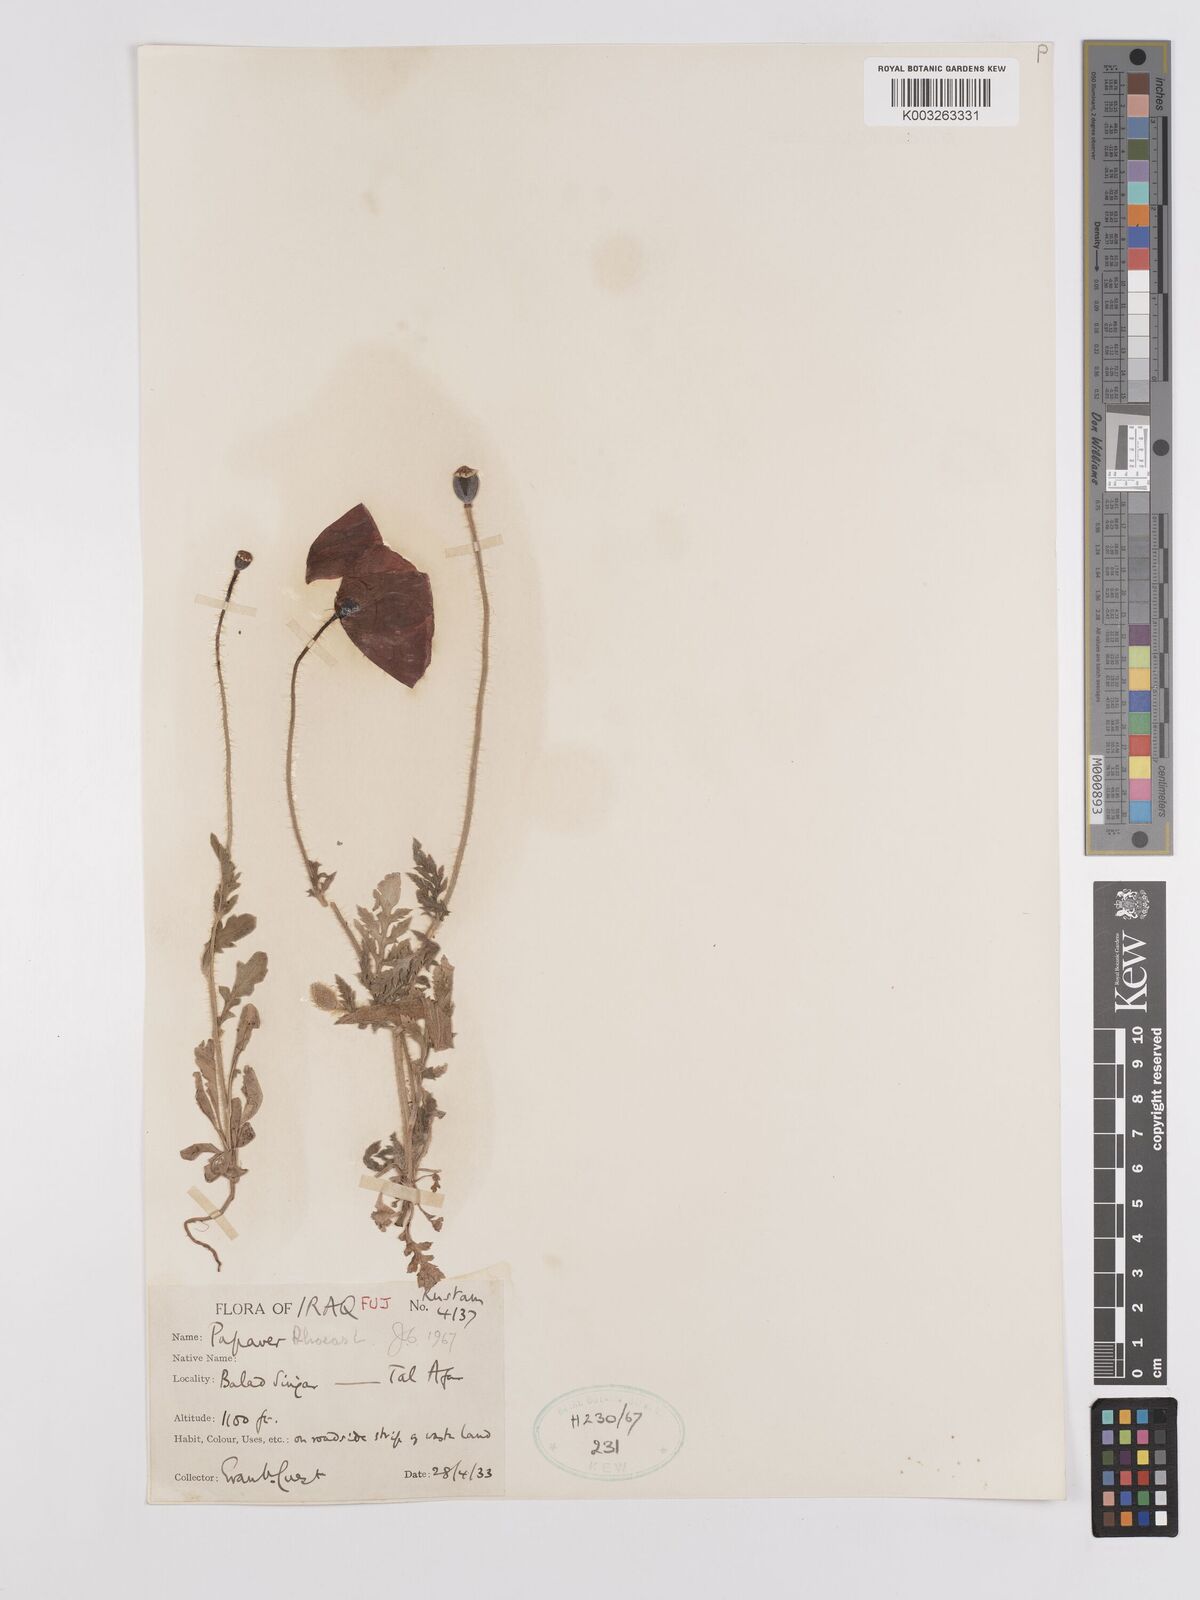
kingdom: Plantae
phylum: Tracheophyta
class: Magnoliopsida
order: Ranunculales
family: Papaveraceae
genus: Papaver
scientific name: Papaver rhoeas
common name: Corn poppy
